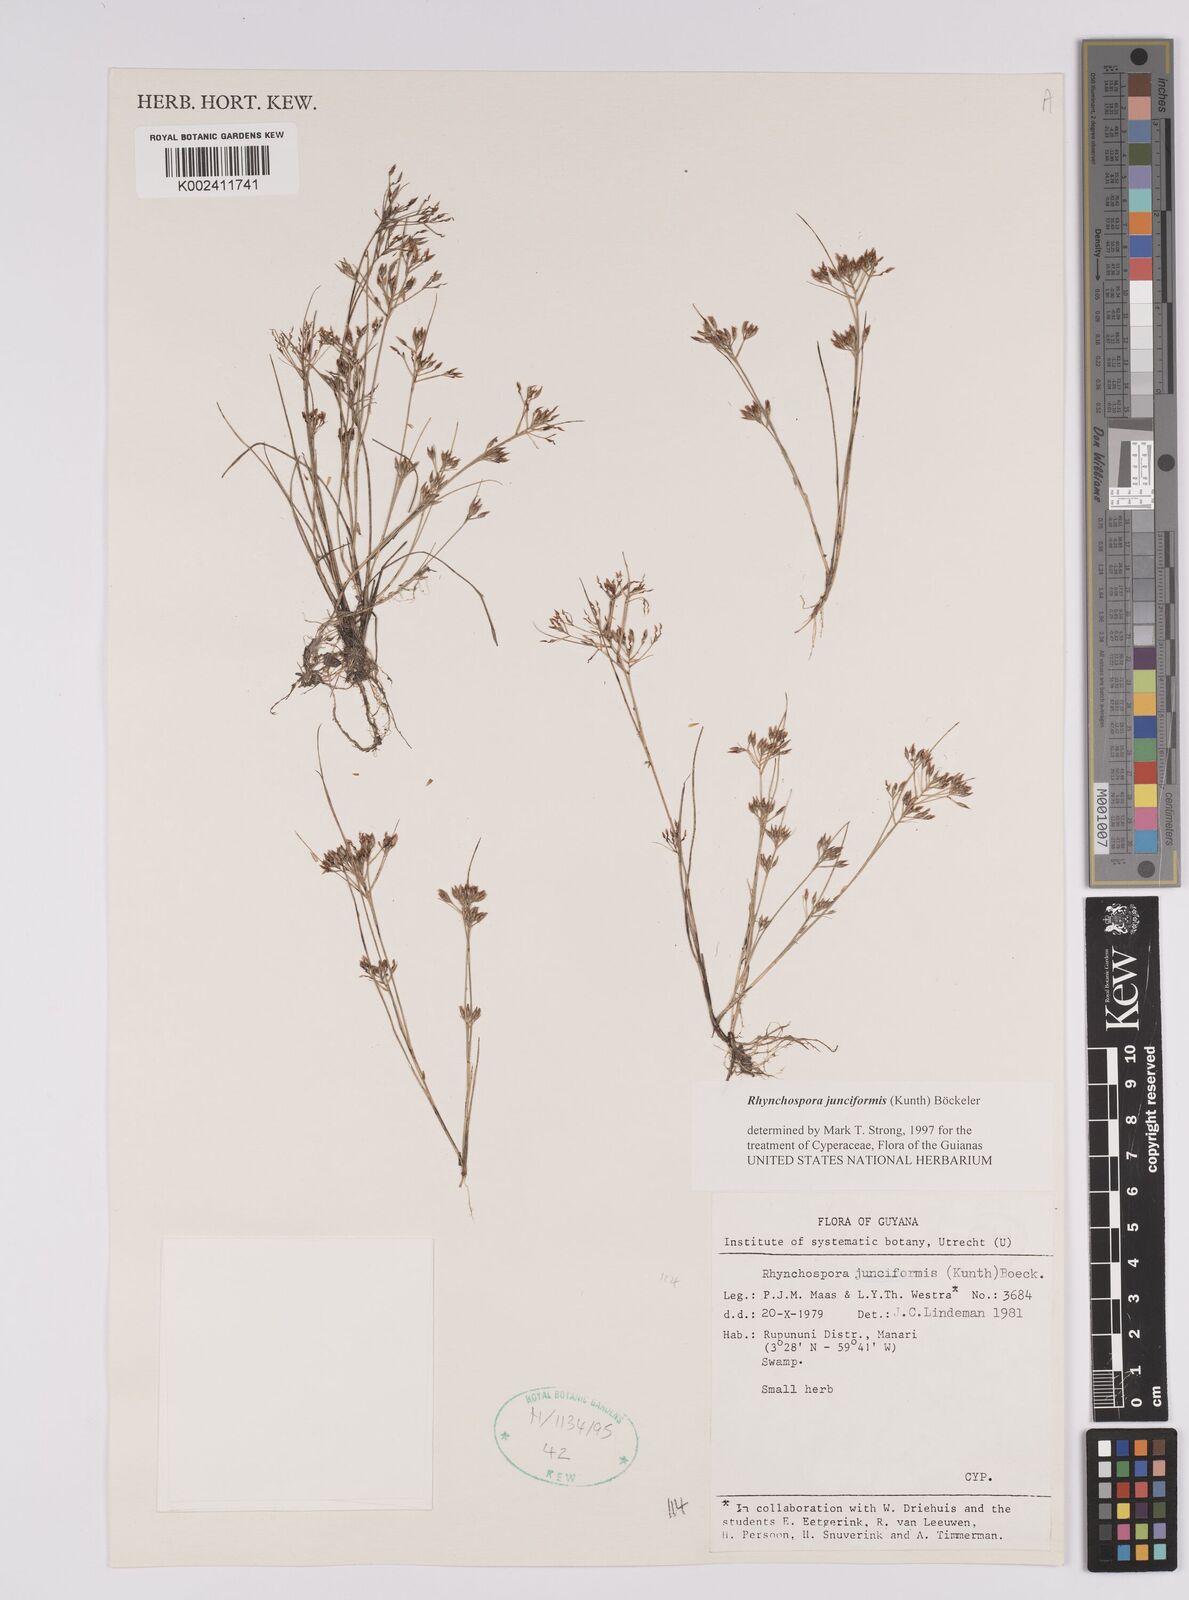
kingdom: Plantae
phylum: Tracheophyta
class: Liliopsida
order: Poales
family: Cyperaceae
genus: Rhynchospora
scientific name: Rhynchospora junciformis
